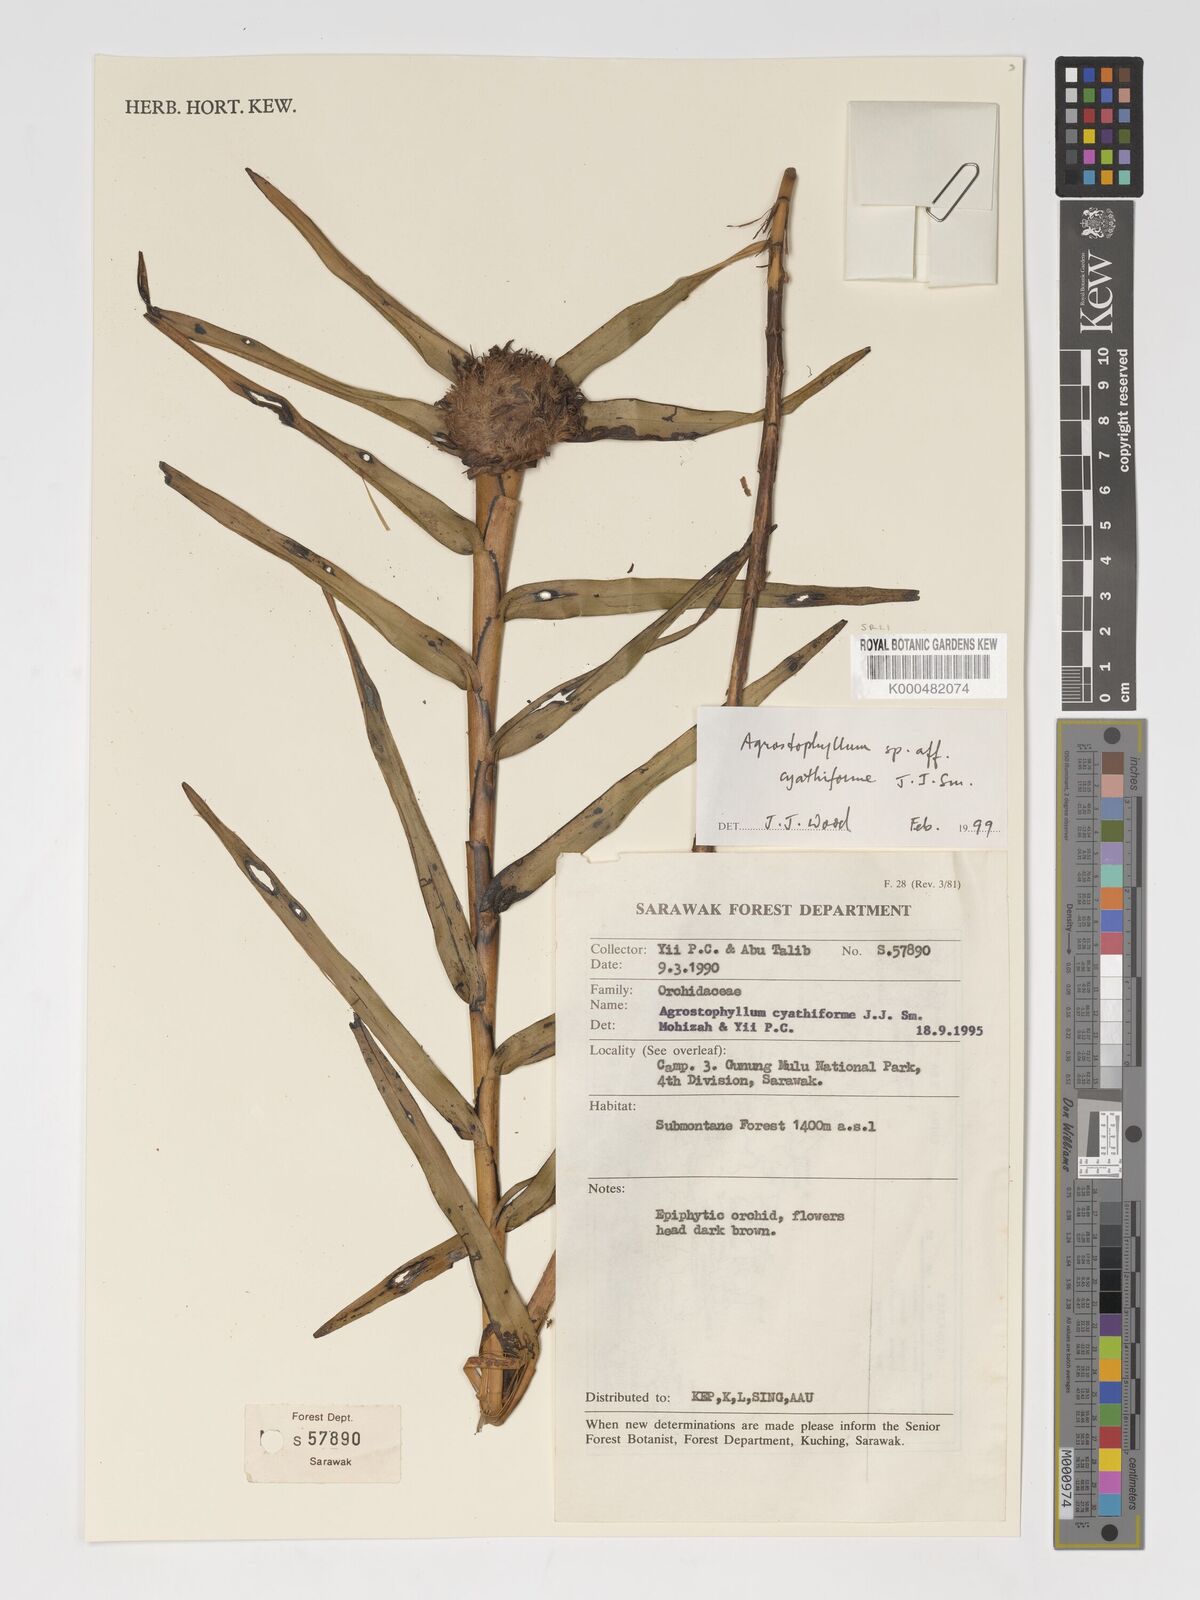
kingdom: Plantae
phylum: Tracheophyta
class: Liliopsida
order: Asparagales
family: Orchidaceae
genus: Agrostophyllum
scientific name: Agrostophyllum cyathiforme
